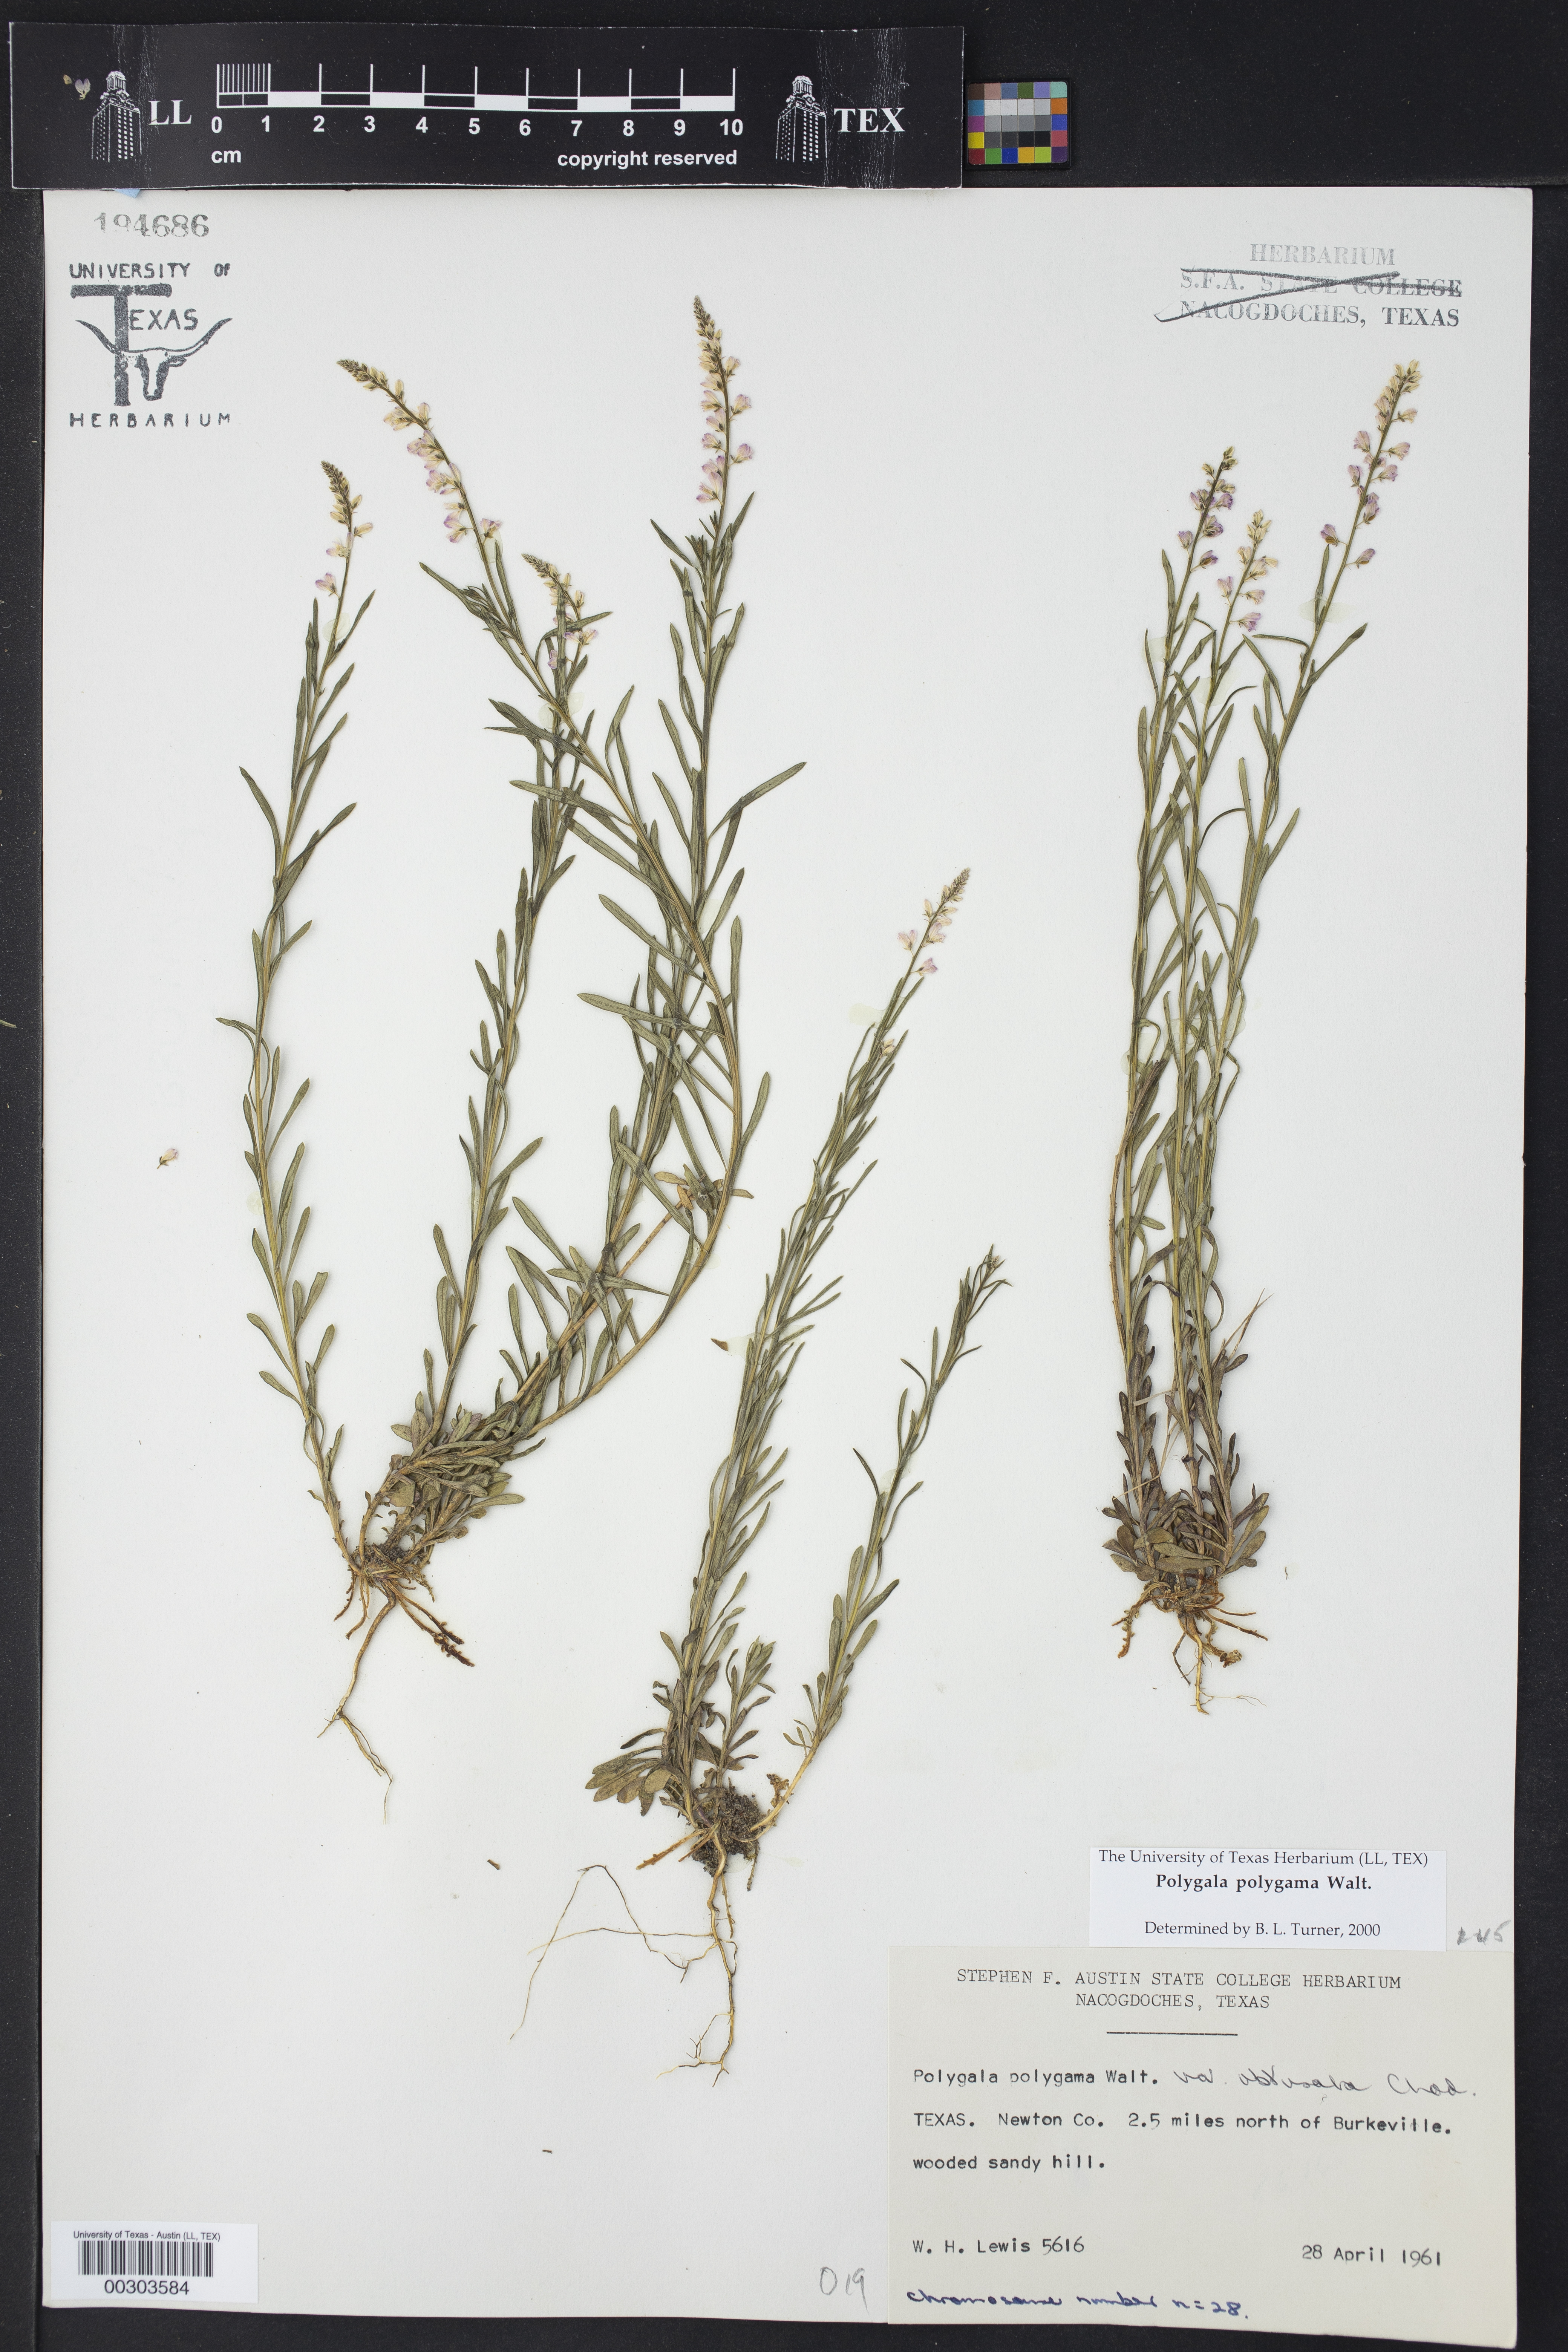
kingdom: Plantae
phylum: Tracheophyta
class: Magnoliopsida
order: Fabales
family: Polygalaceae
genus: Polygala
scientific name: Polygala polygama
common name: Bitter milkwort
